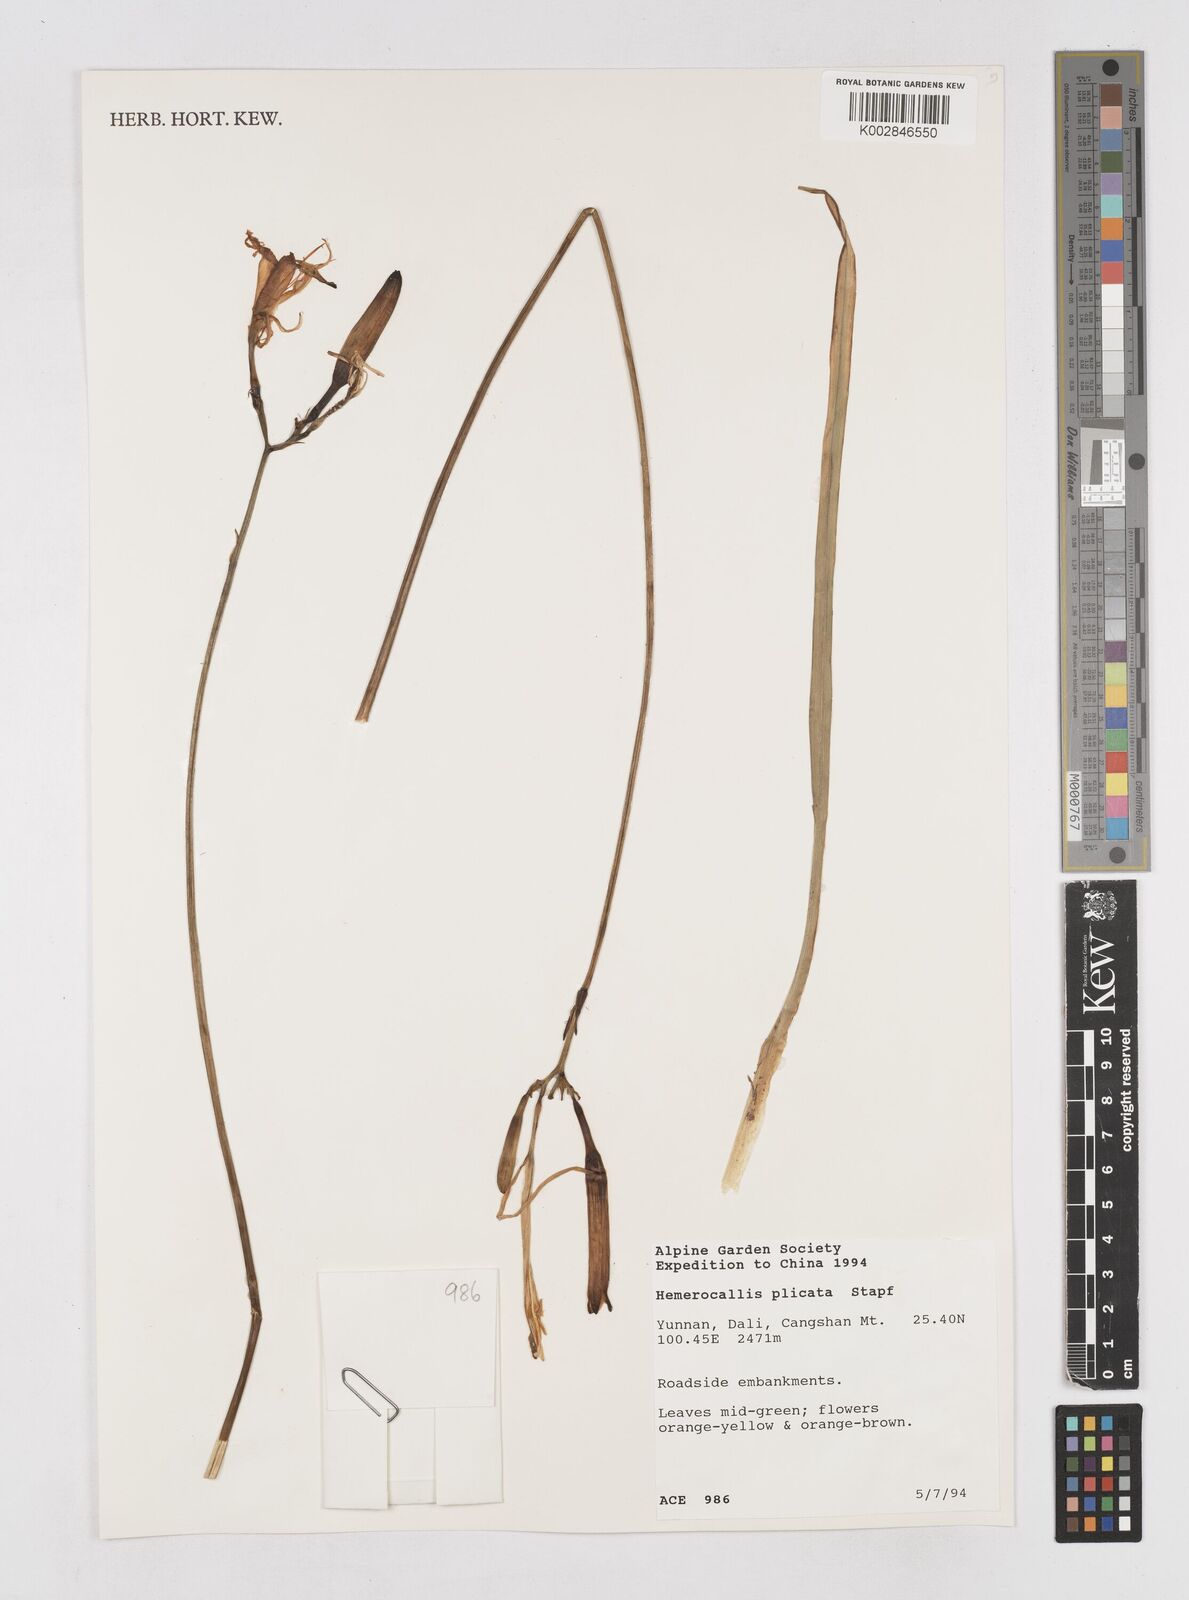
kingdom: Plantae
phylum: Tracheophyta
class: Liliopsida
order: Asparagales
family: Asphodelaceae
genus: Hemerocallis
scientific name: Hemerocallis plicata
